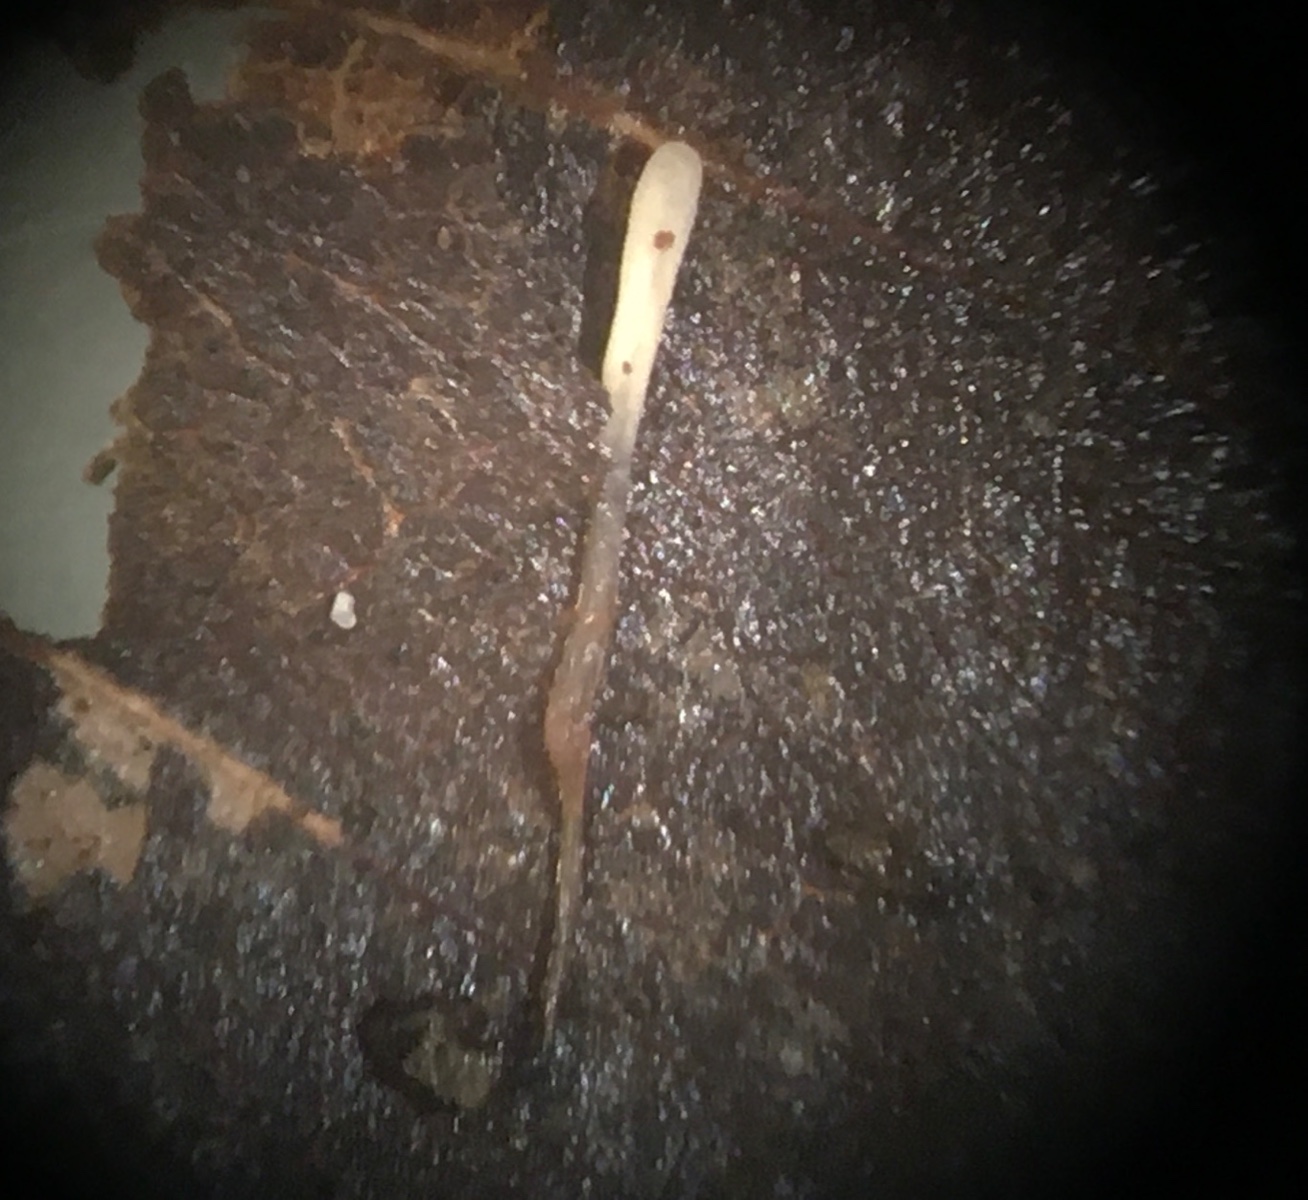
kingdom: Fungi
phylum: Basidiomycota
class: Agaricomycetes
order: Agaricales
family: Typhulaceae
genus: Typhula
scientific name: Typhula erythropus
